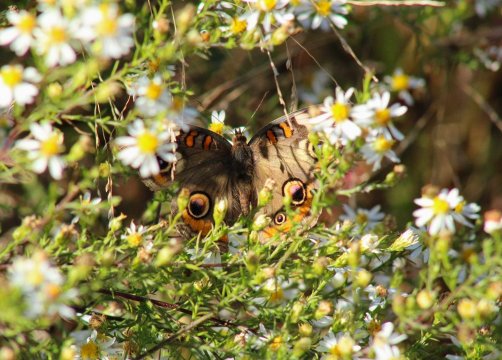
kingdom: Animalia
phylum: Arthropoda
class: Insecta
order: Lepidoptera
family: Nymphalidae
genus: Junonia
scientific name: Junonia coenia
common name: Common Buckeye
